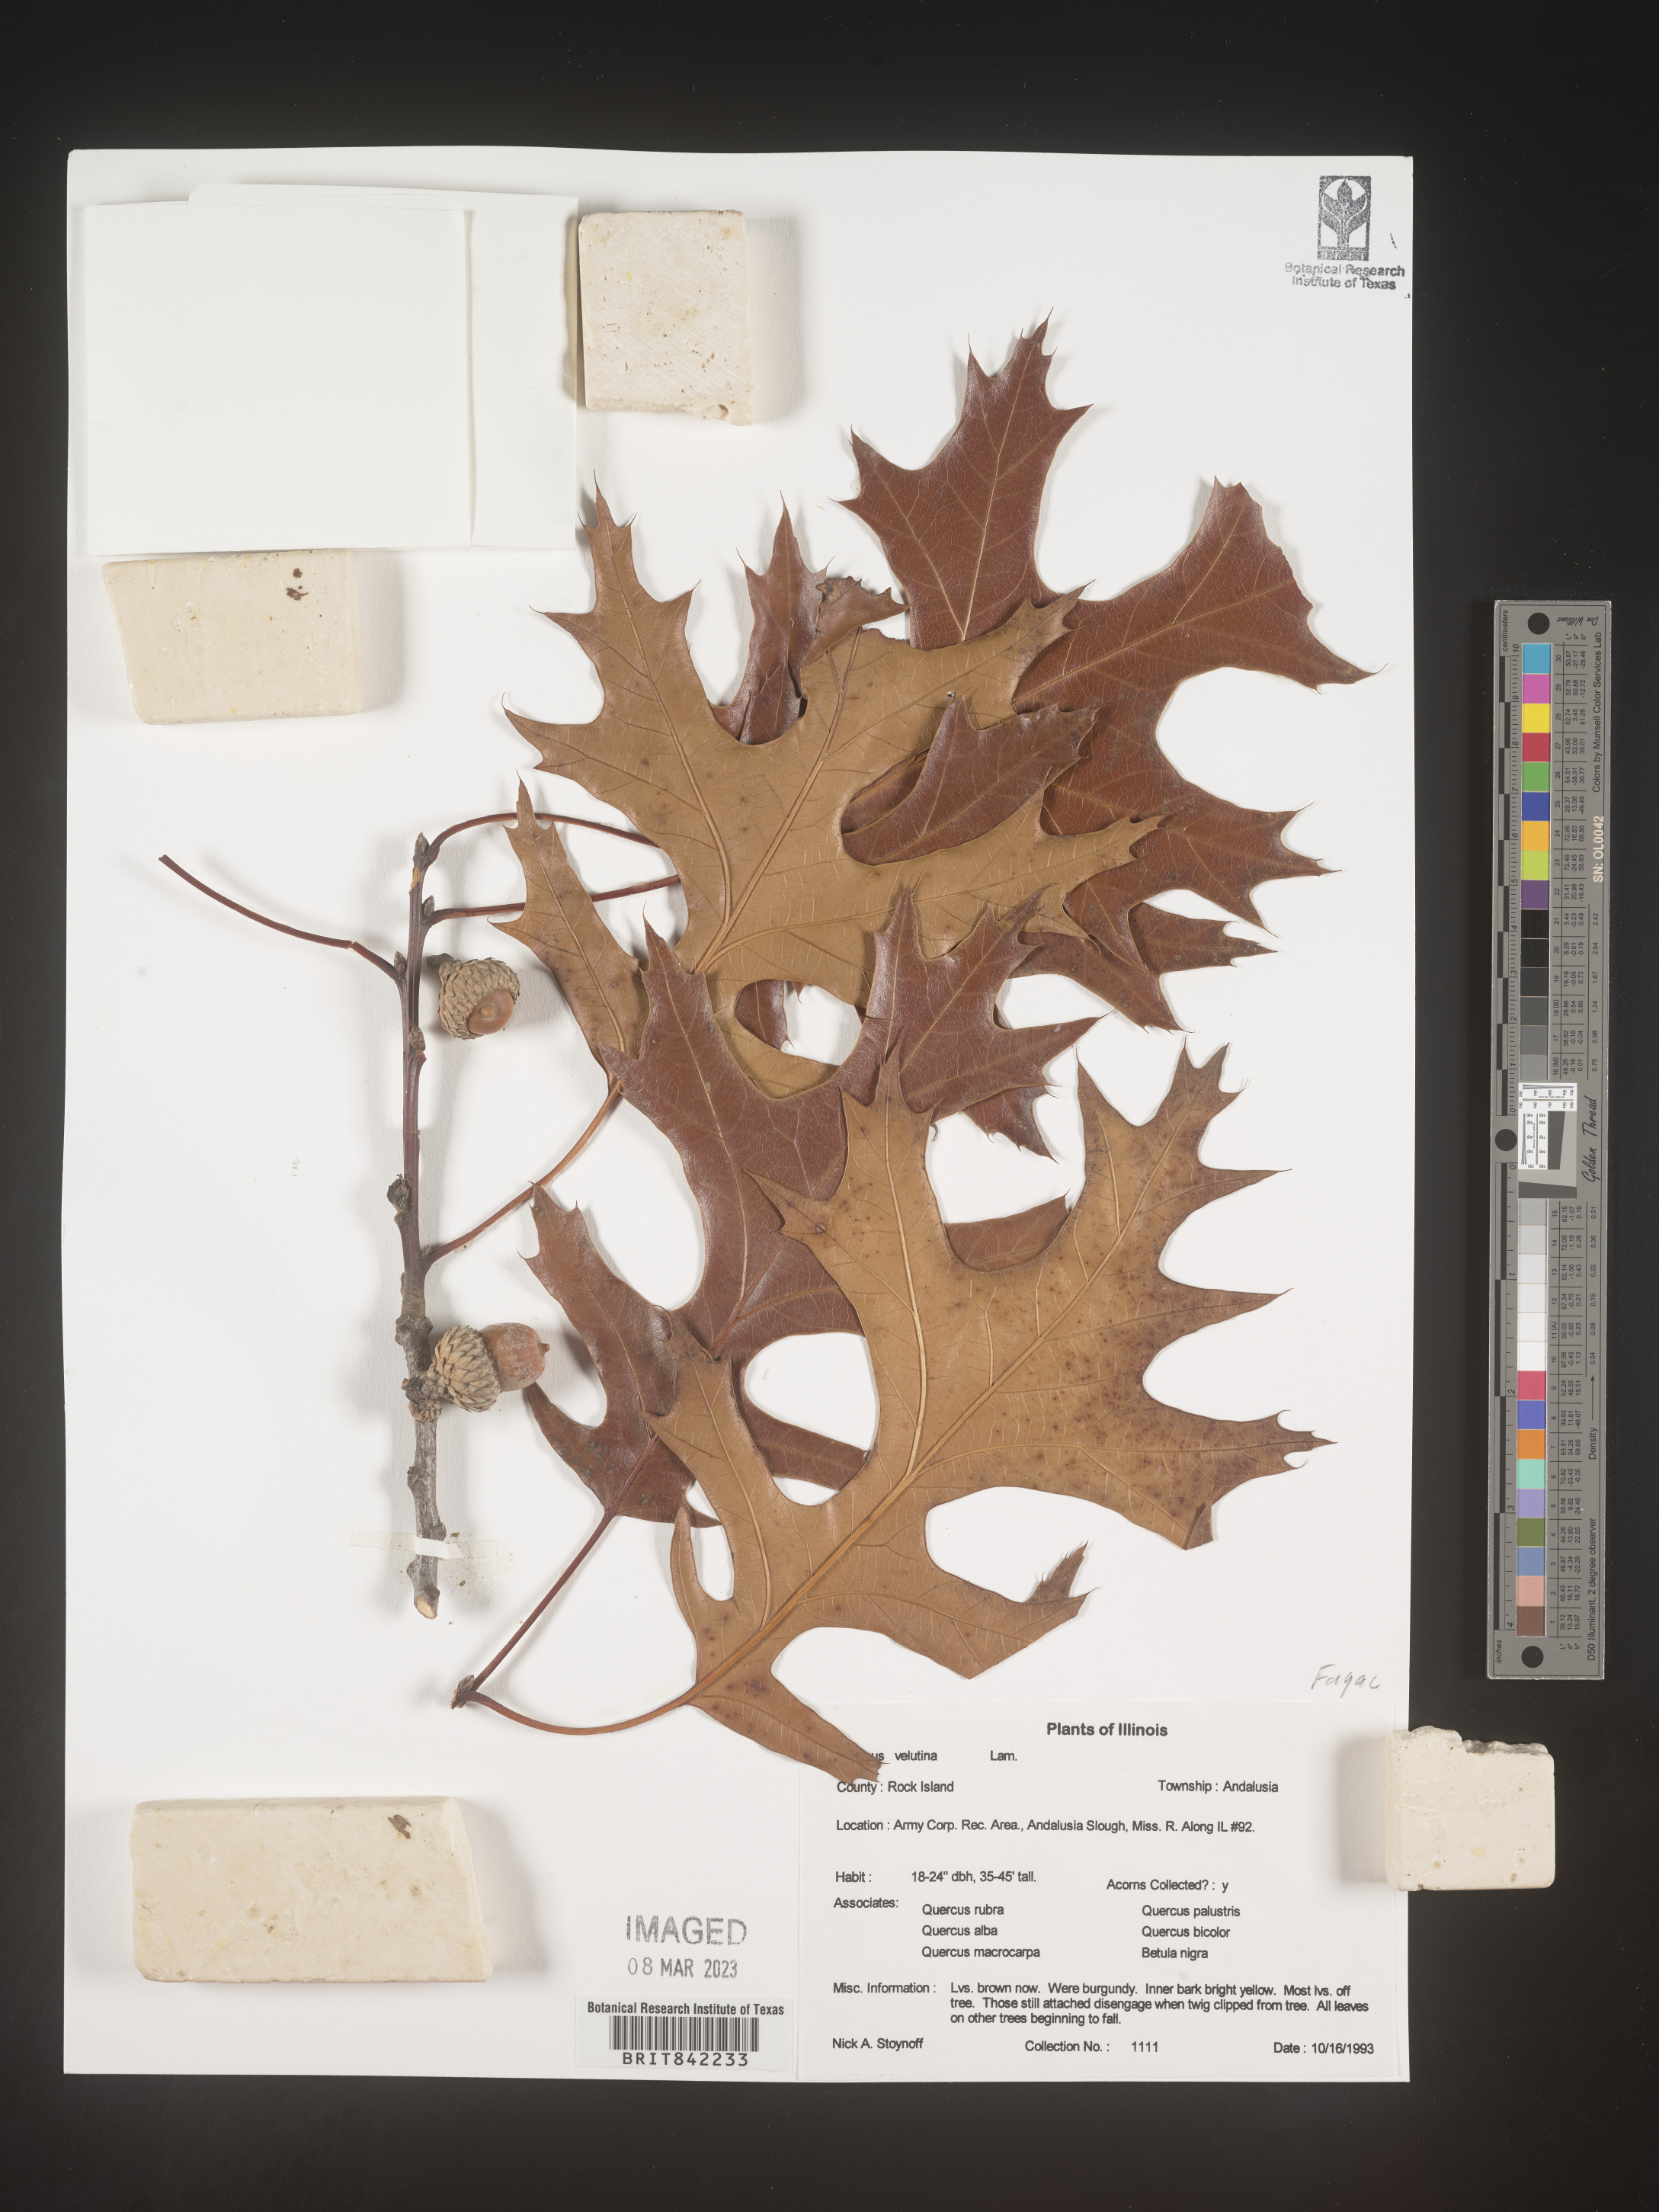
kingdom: Plantae
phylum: Tracheophyta
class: Magnoliopsida
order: Fagales
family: Fagaceae
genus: Quercus
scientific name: Quercus velutina
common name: Black oak
